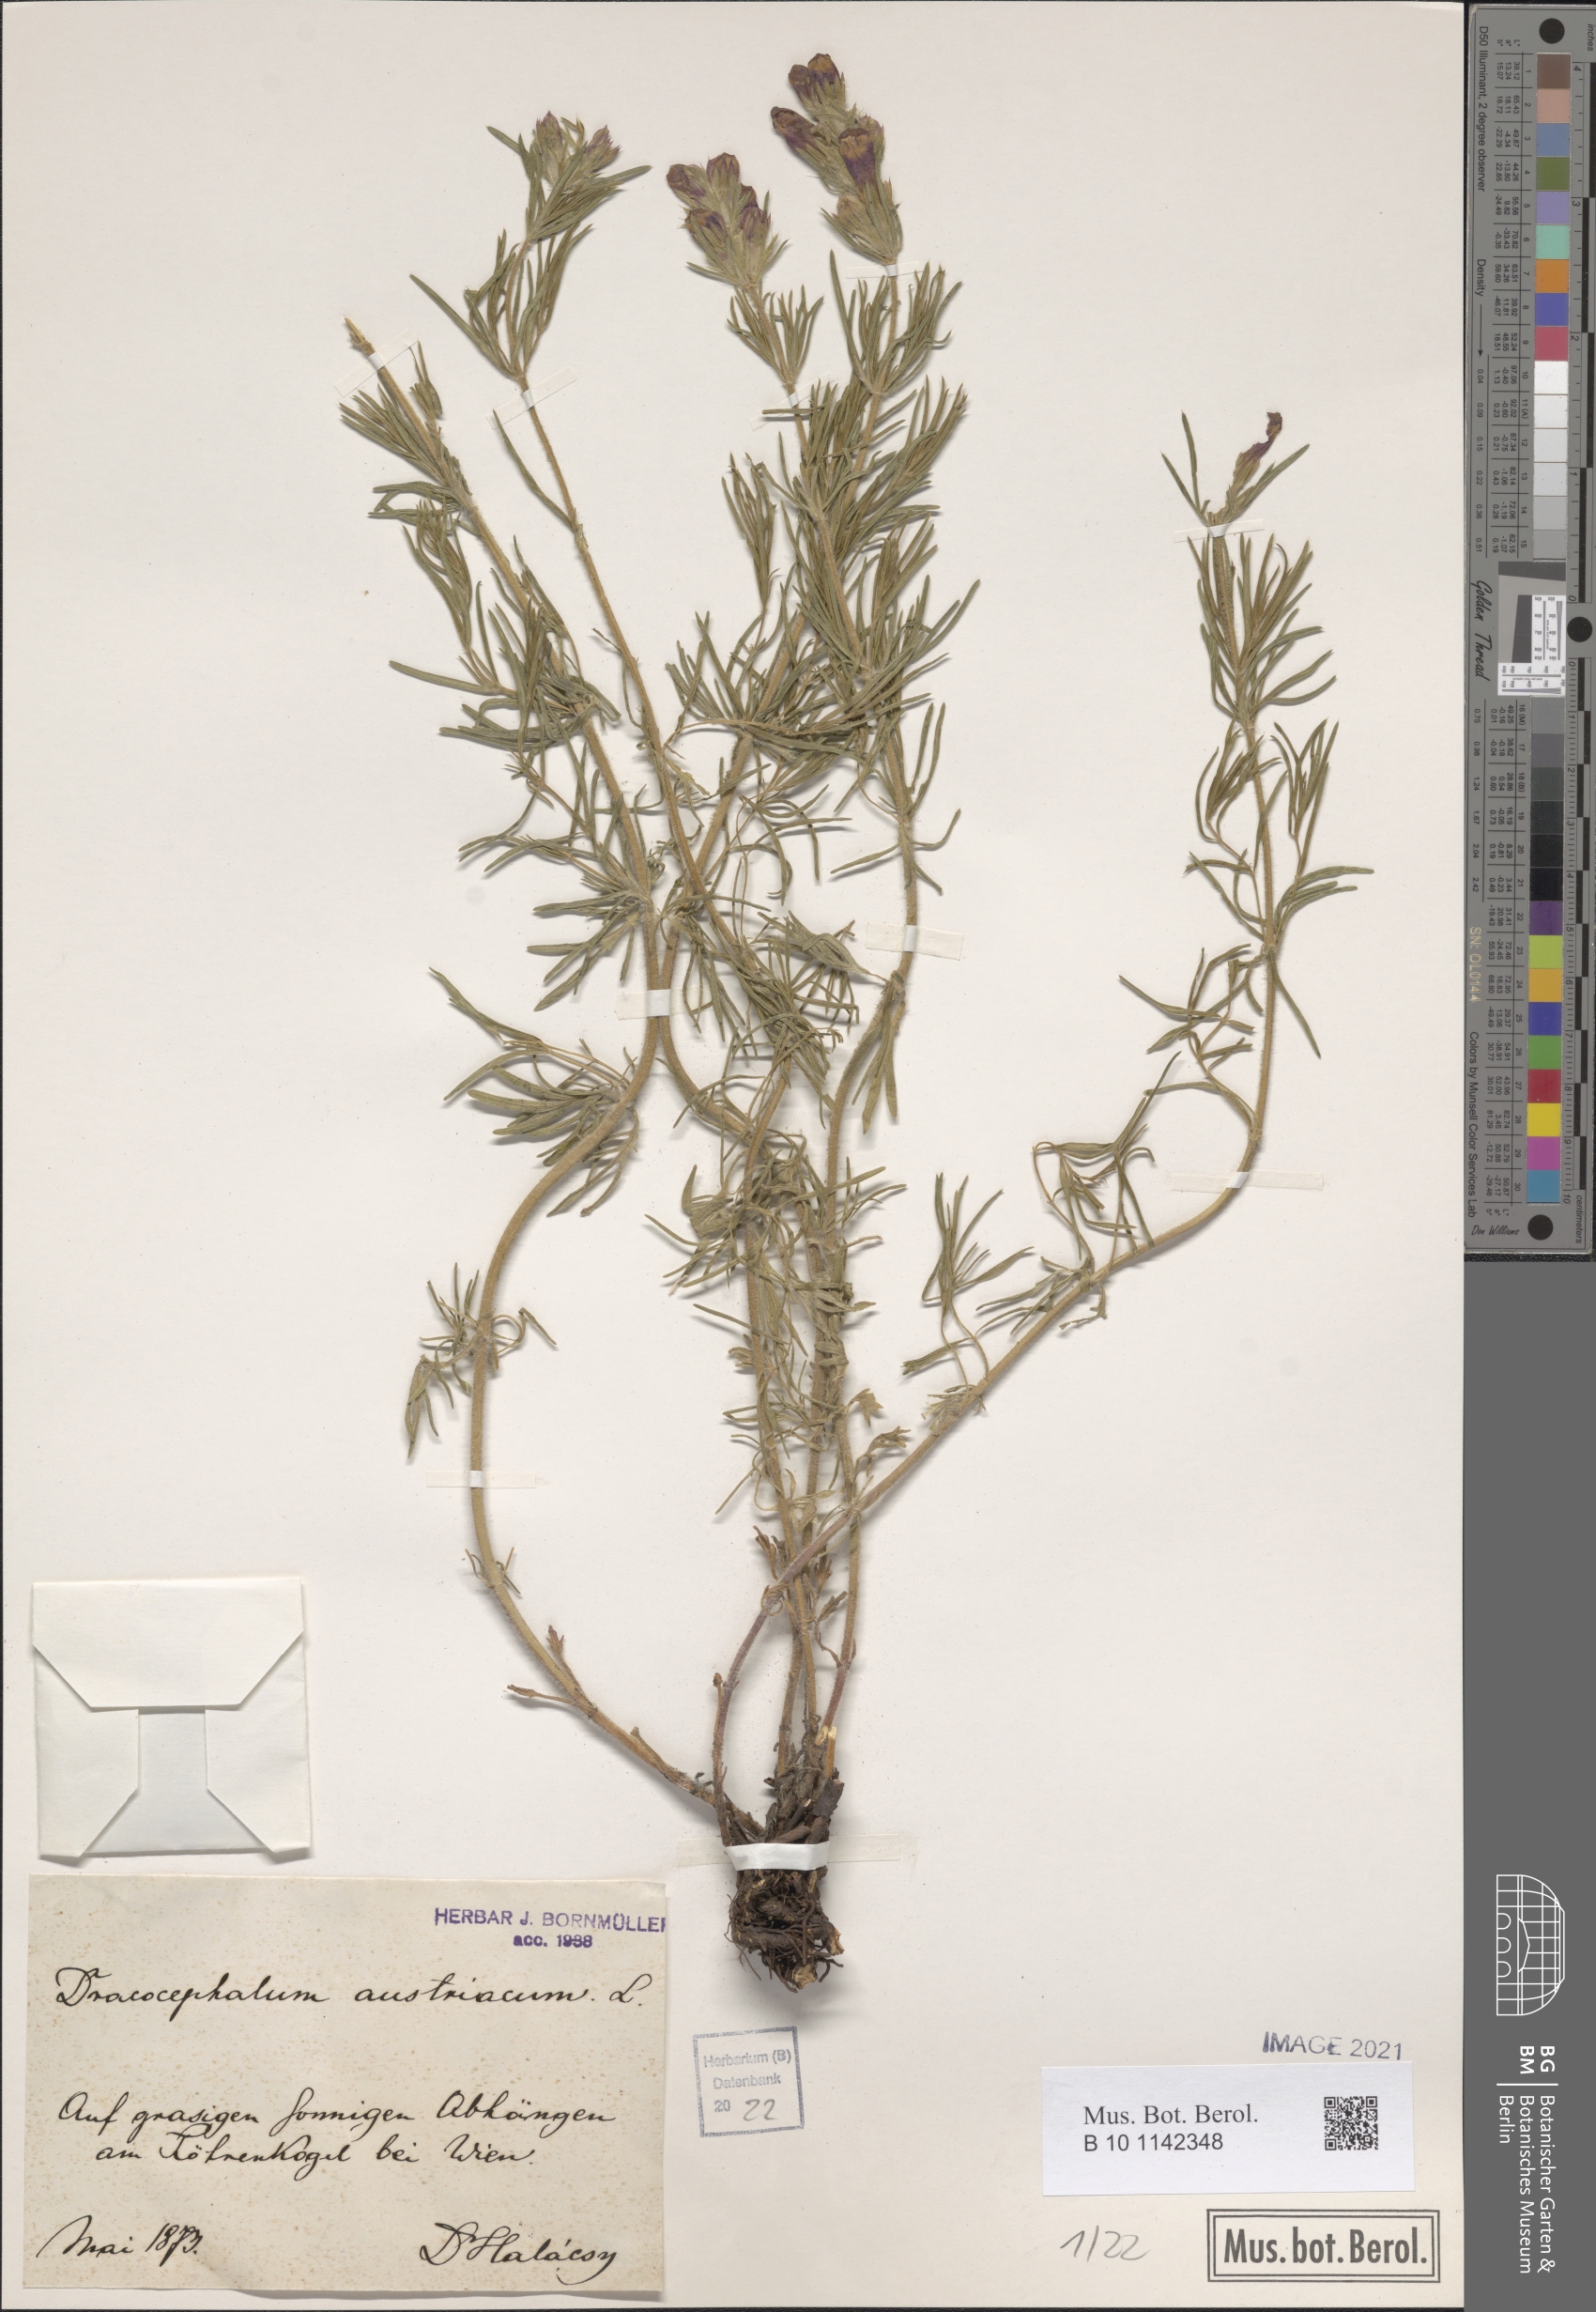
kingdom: Plantae
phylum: Tracheophyta
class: Magnoliopsida
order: Lamiales
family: Lamiaceae
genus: Dracocephalum
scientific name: Dracocephalum austriacum
